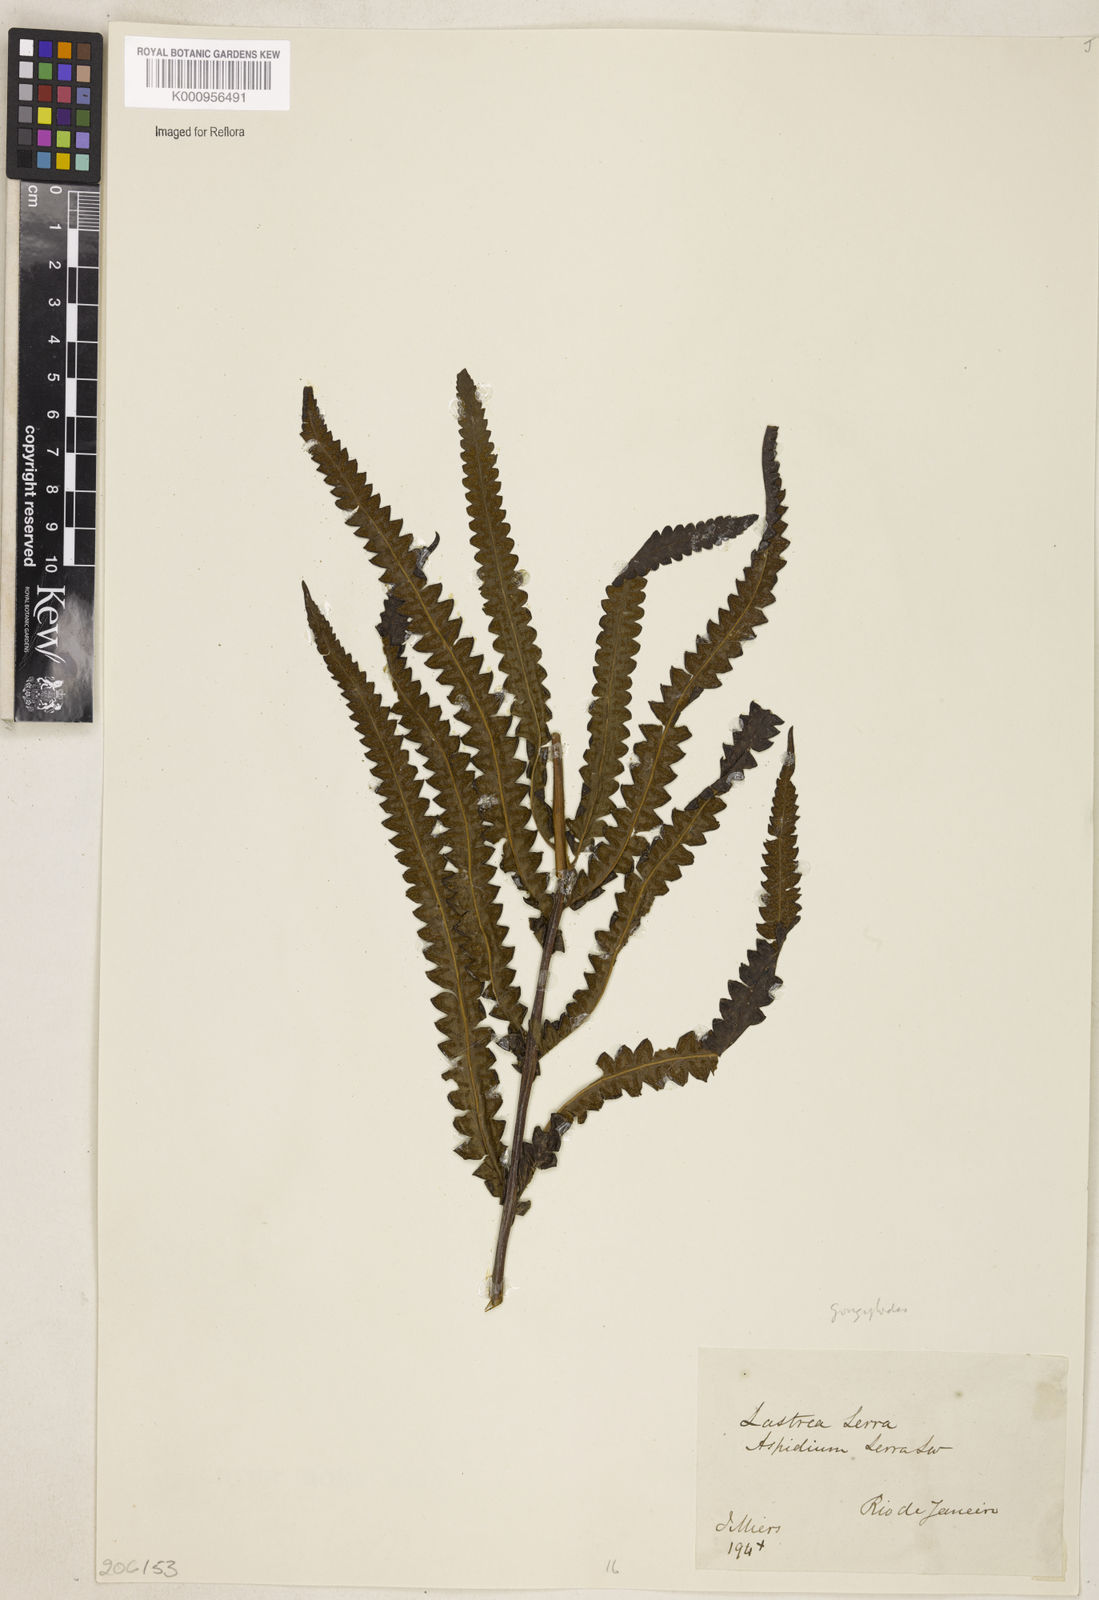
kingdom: Plantae
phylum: Tracheophyta
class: Polypodiopsida
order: Polypodiales
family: Thelypteridaceae
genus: Cyclosorus
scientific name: Cyclosorus interruptus
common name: Neke fern
